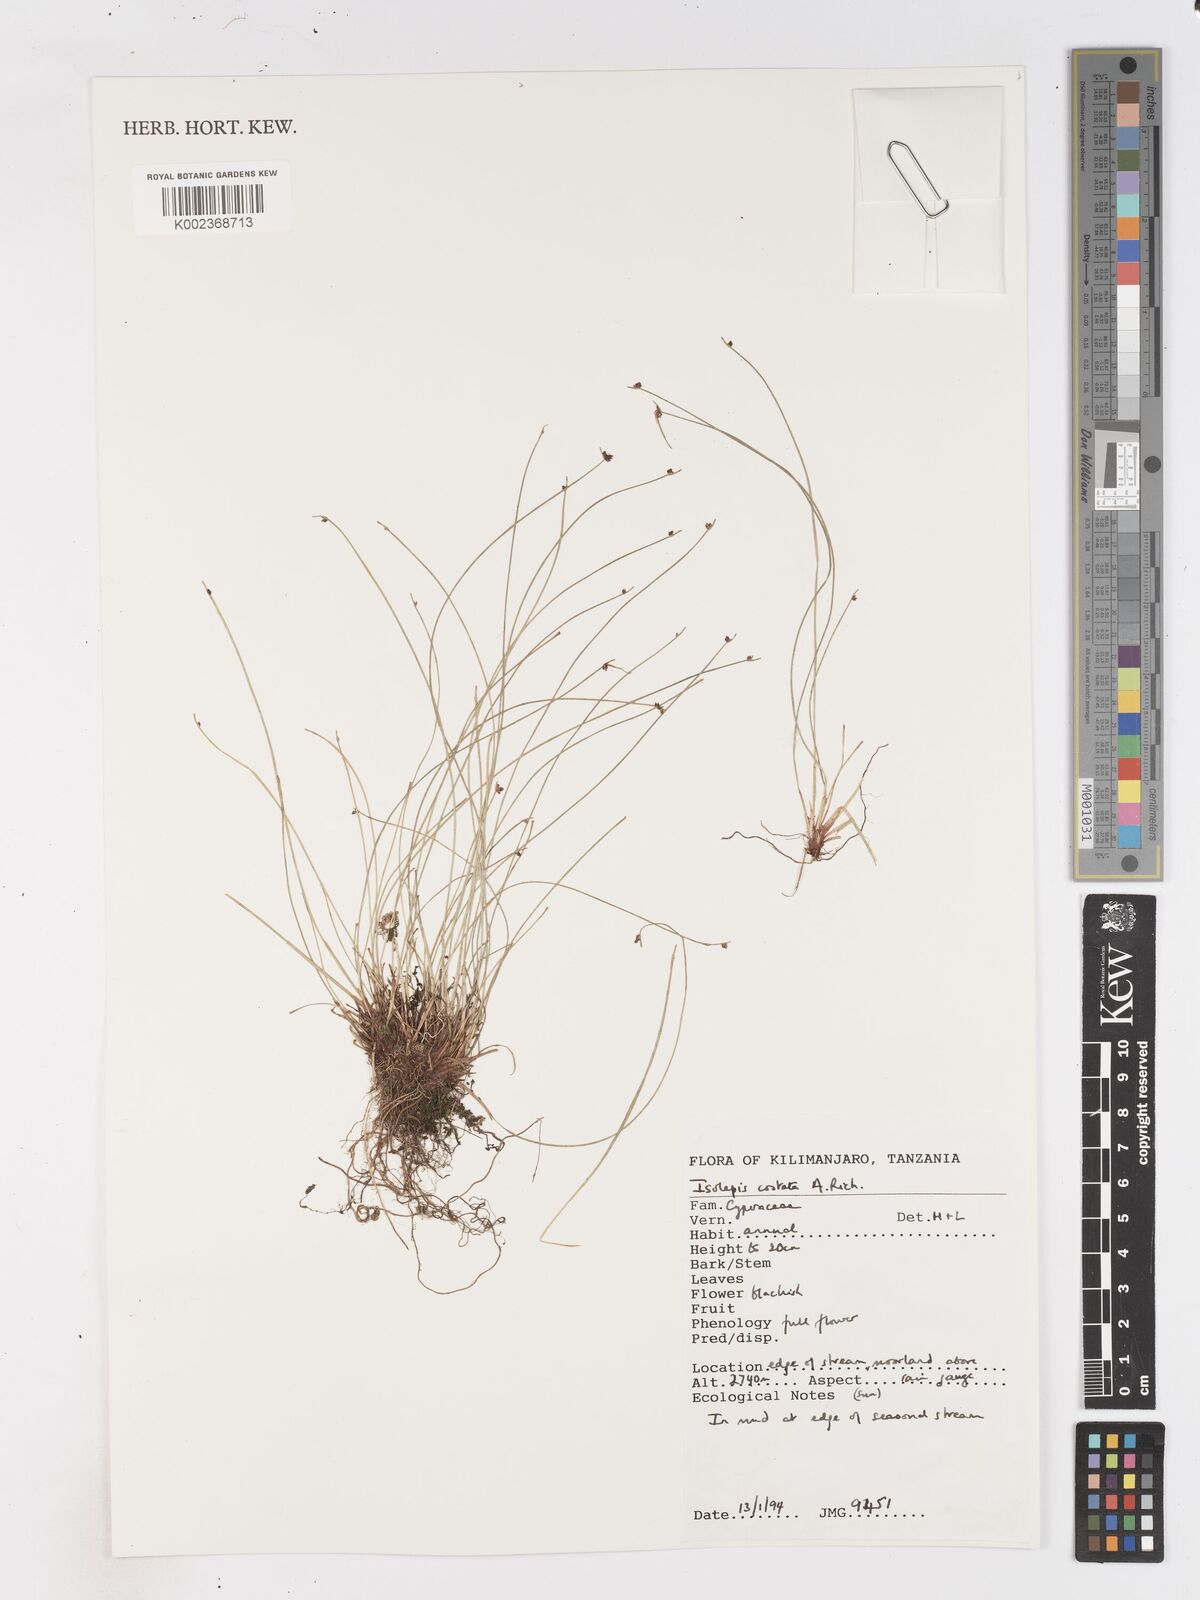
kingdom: Plantae
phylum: Tracheophyta
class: Liliopsida
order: Poales
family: Cyperaceae
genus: Isolepis
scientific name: Isolepis costata
